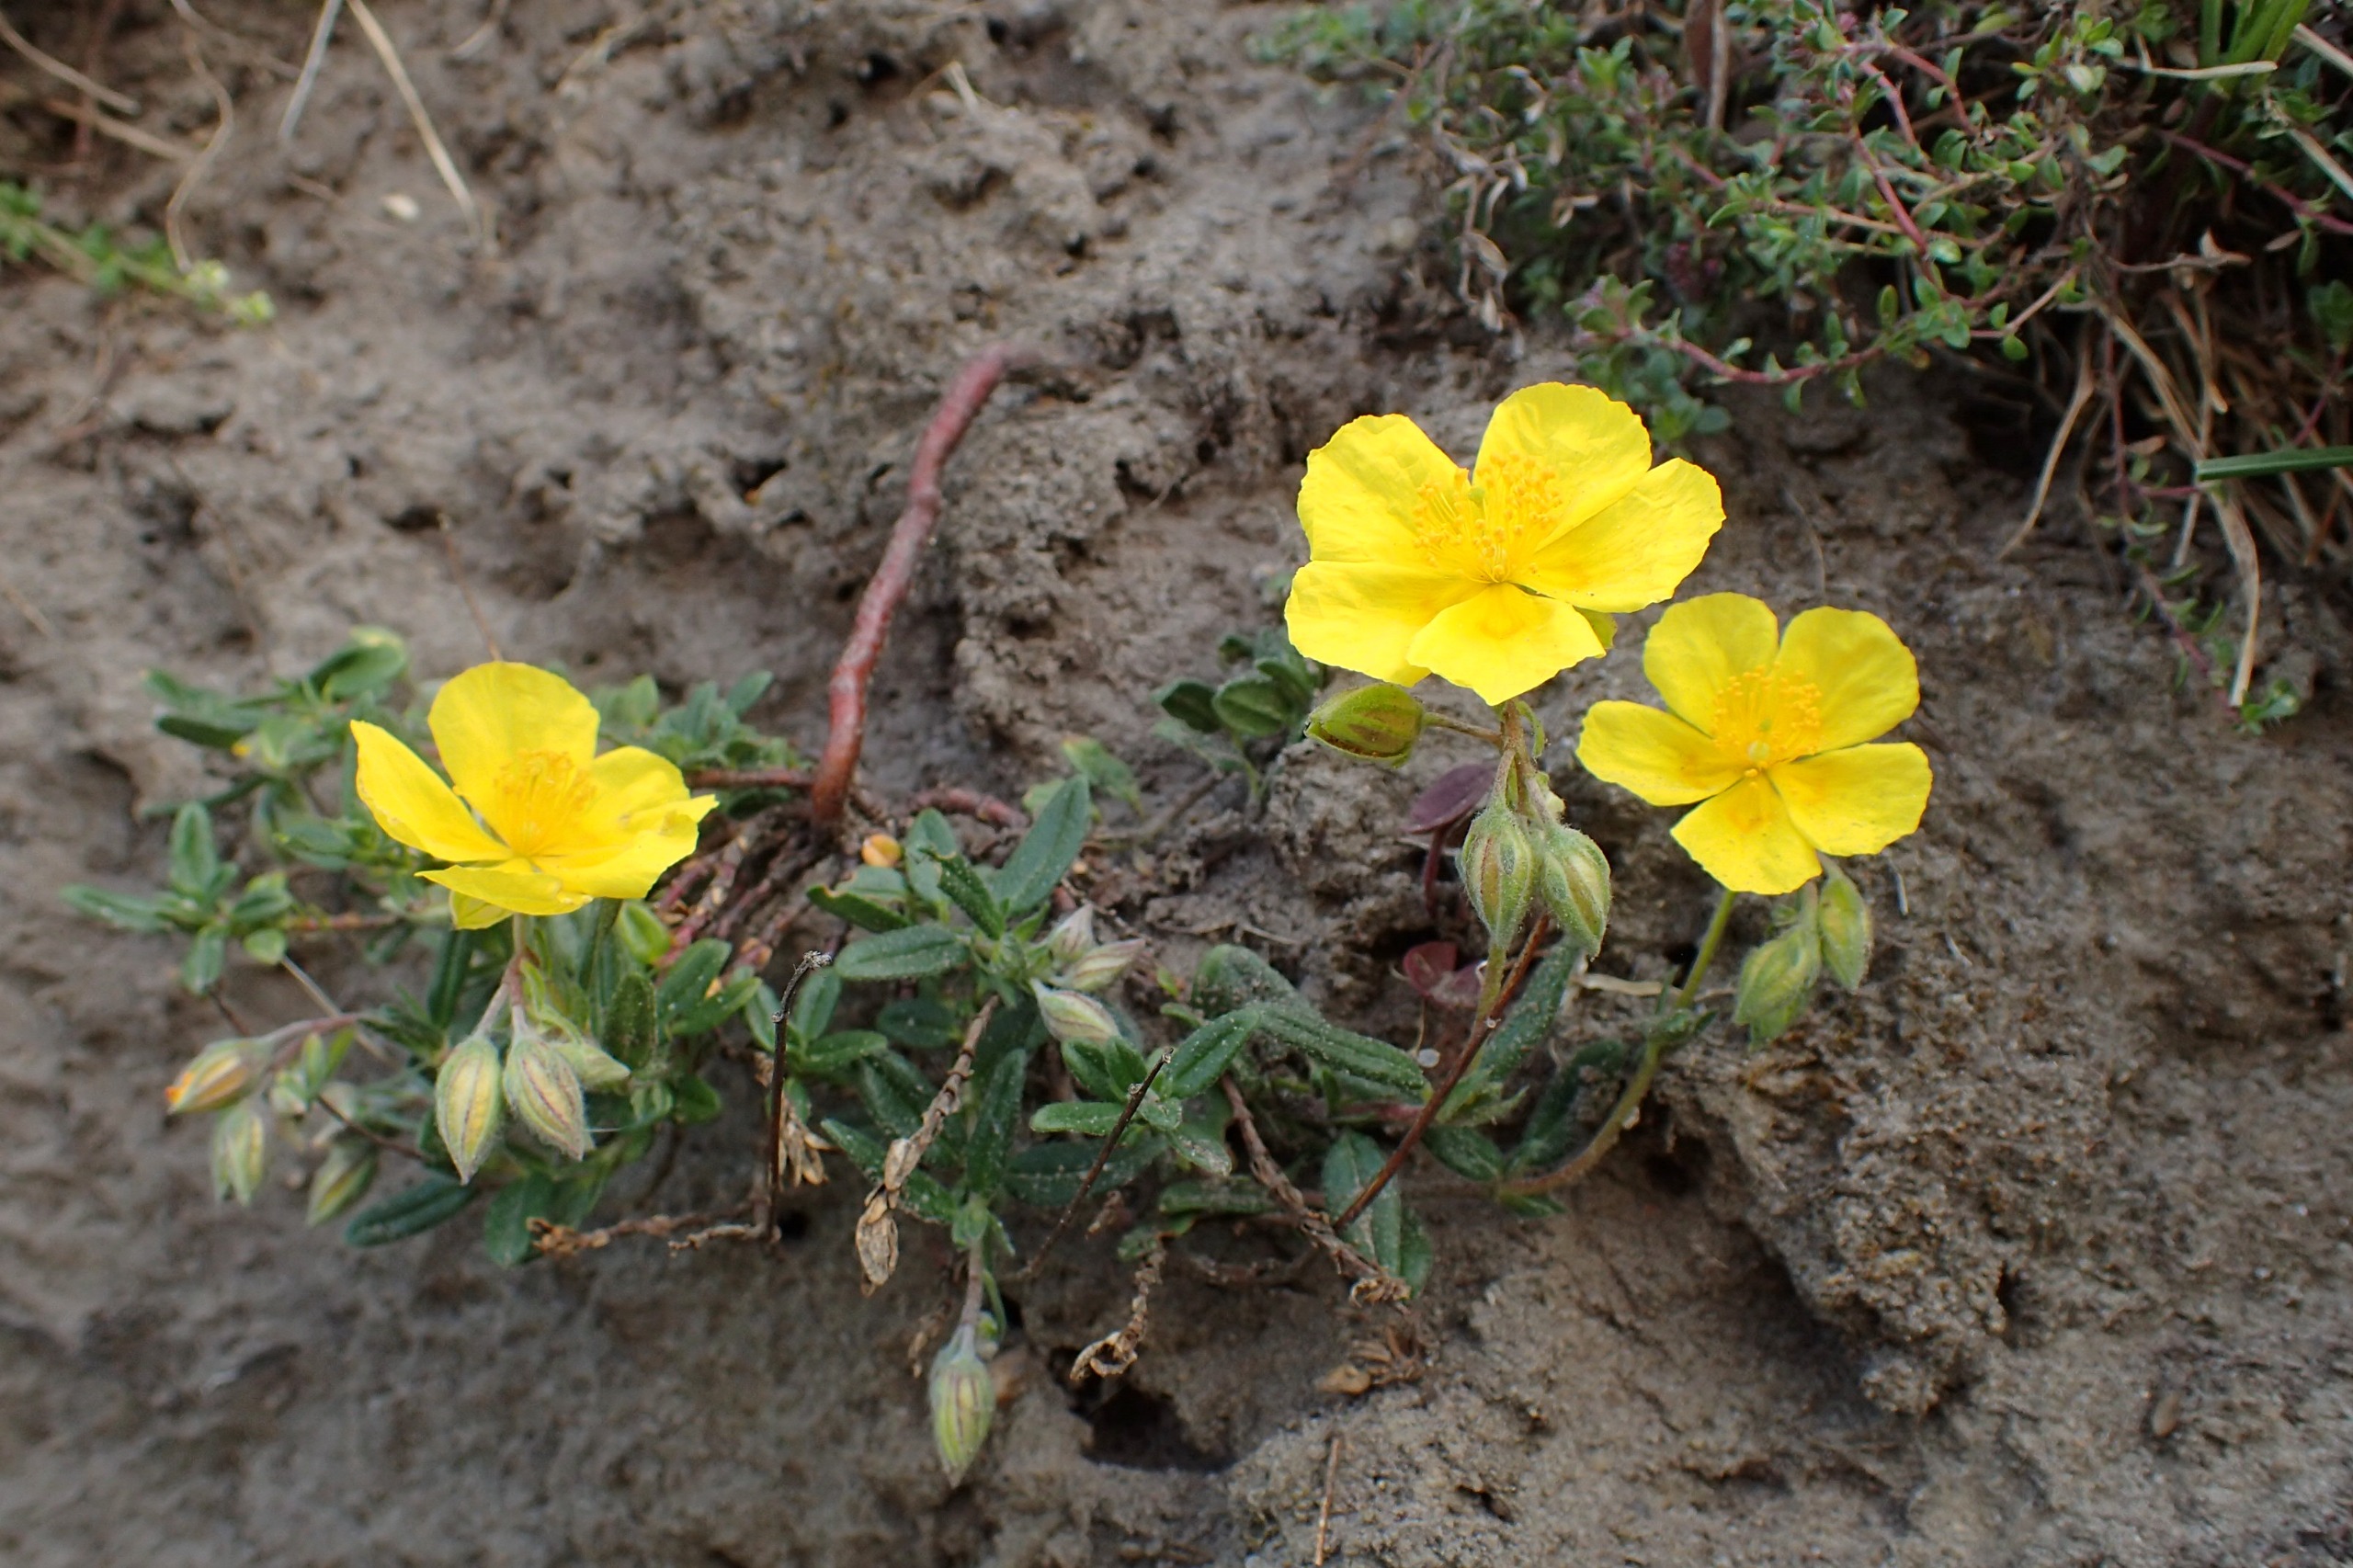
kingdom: Plantae
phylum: Tracheophyta
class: Magnoliopsida
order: Malvales
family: Cistaceae
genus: Helianthemum
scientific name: Helianthemum nummularium
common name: Bakke-soløje
